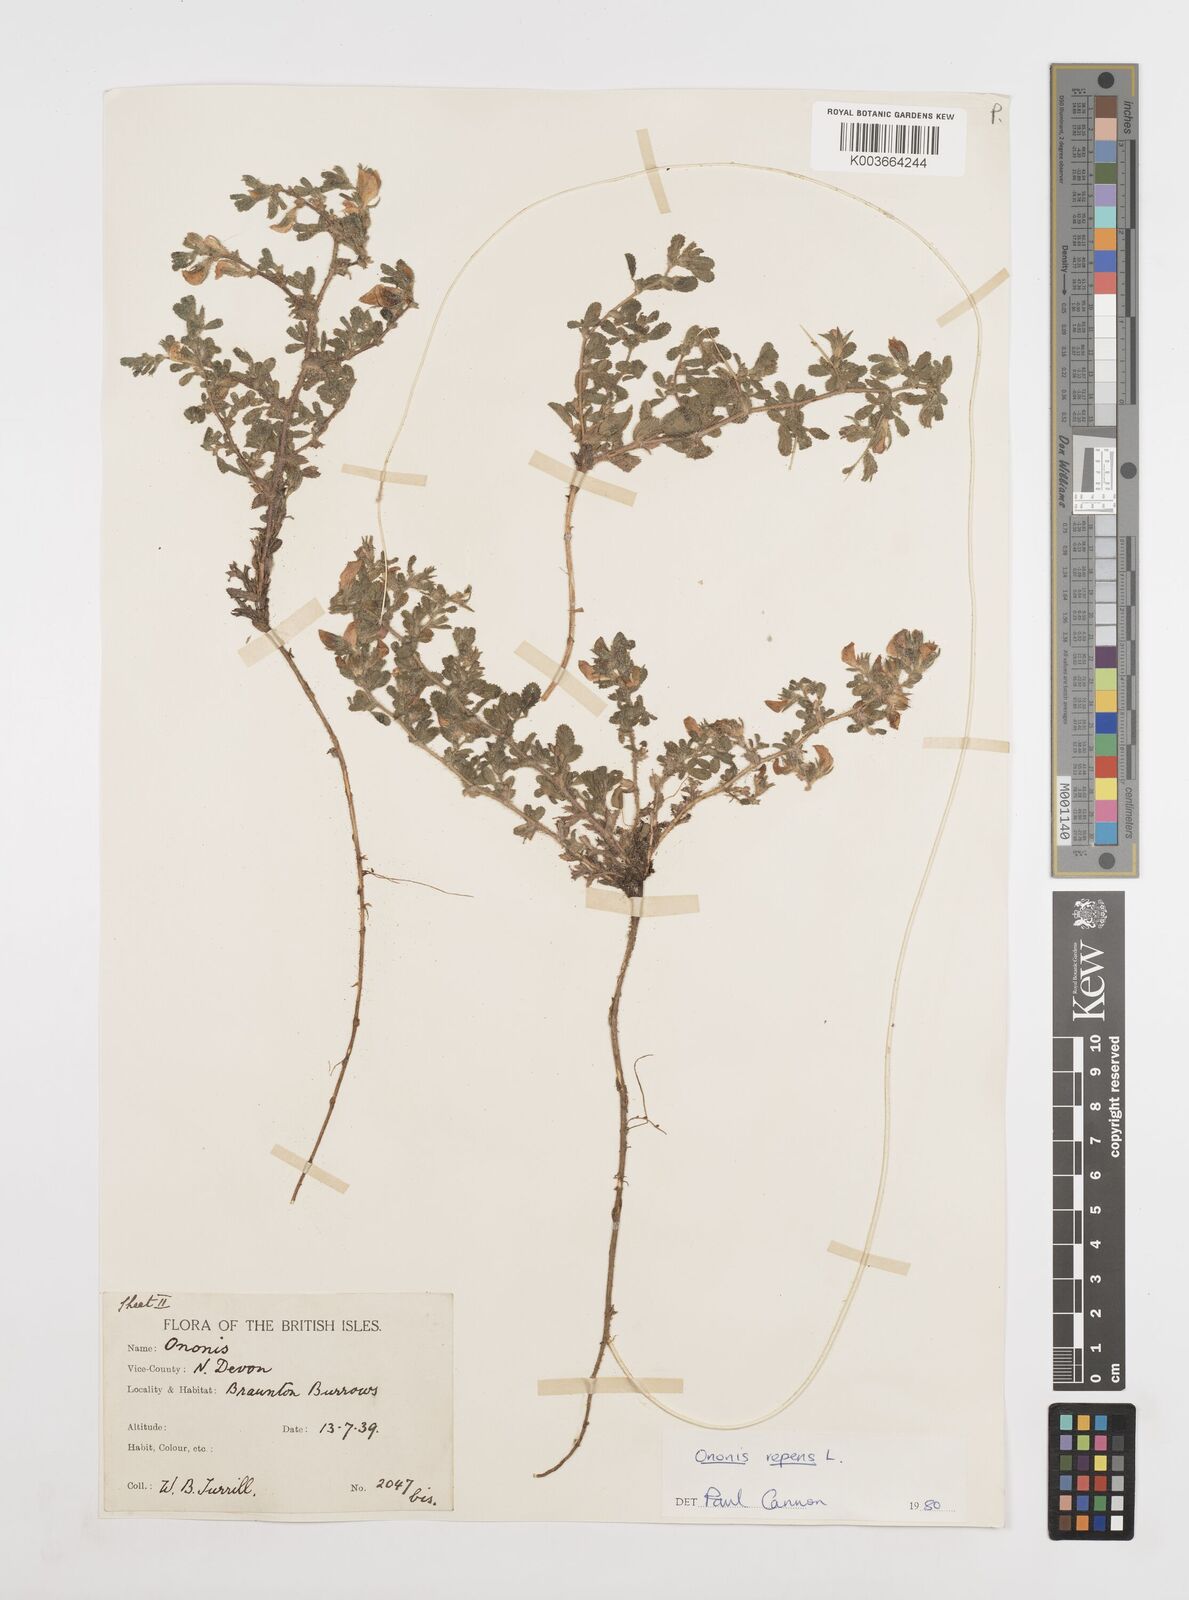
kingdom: Plantae
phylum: Tracheophyta
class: Magnoliopsida
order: Fabales
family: Fabaceae
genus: Ononis
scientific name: Ononis spinosa
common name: Spiny restharrow
